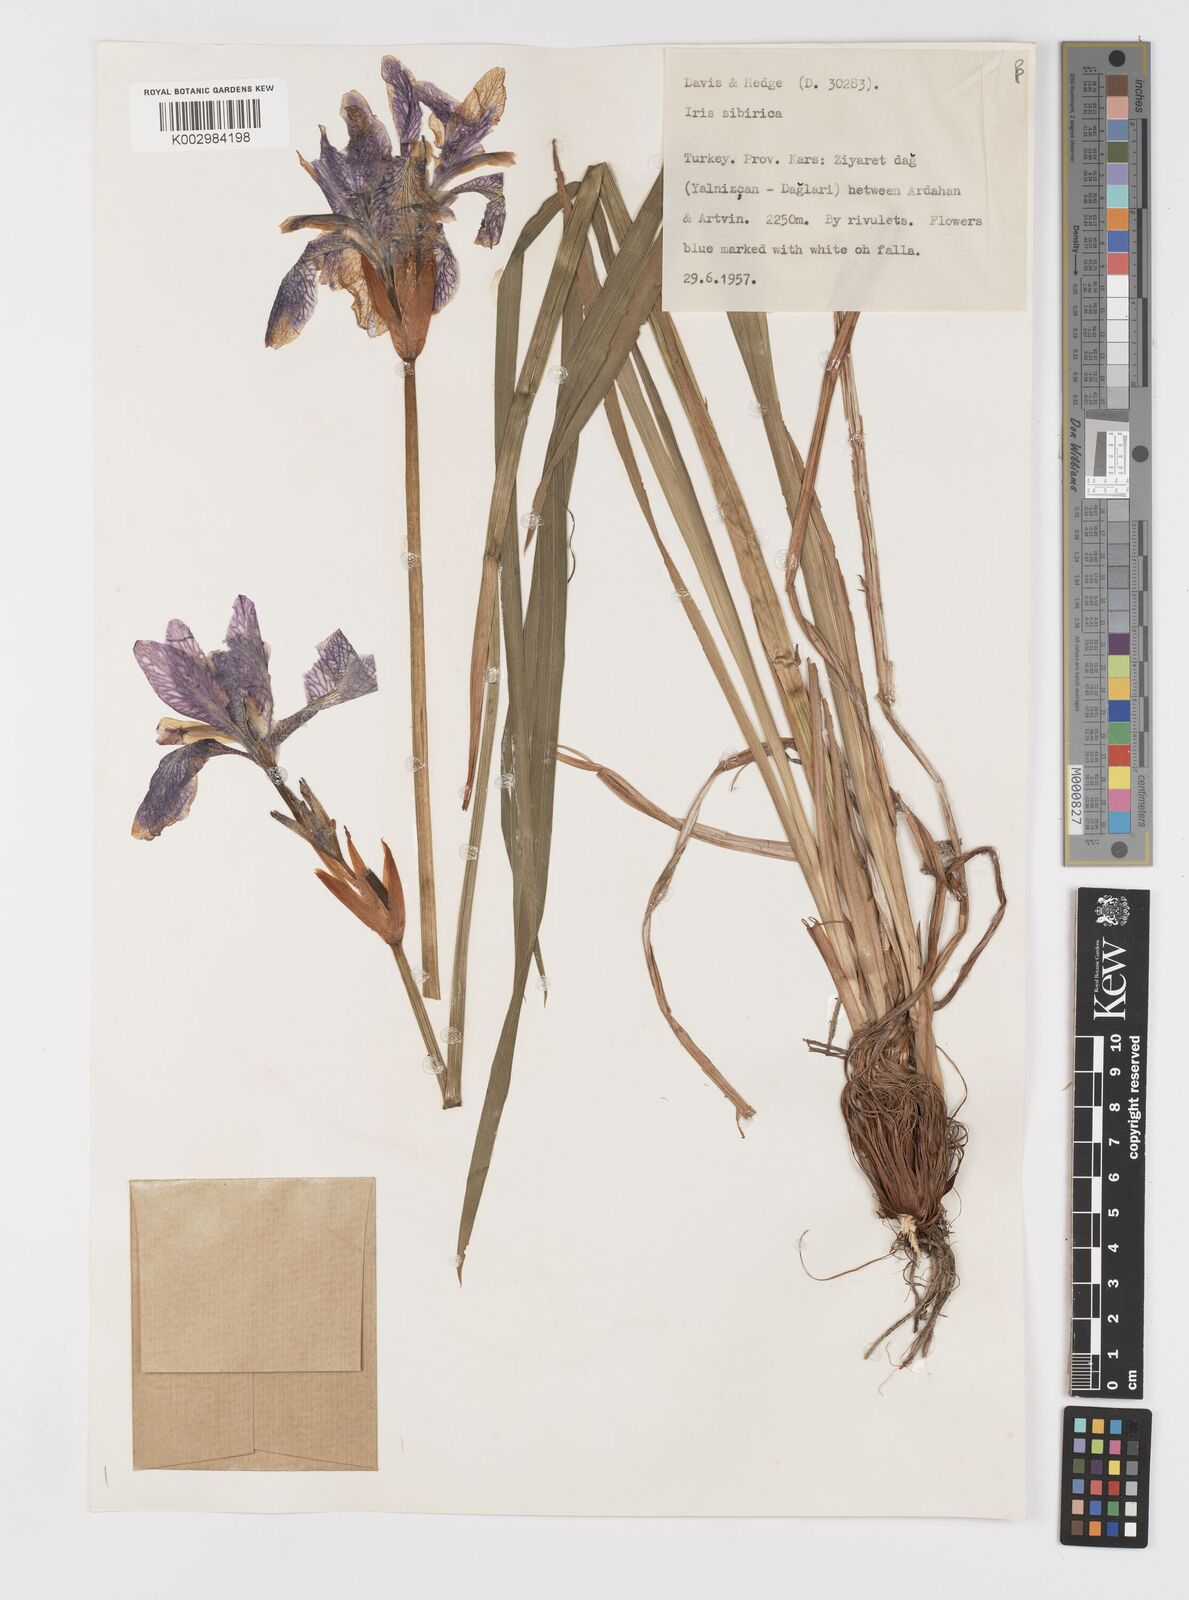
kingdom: Plantae
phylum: Tracheophyta
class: Liliopsida
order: Asparagales
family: Iridaceae
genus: Iris
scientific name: Iris sibirica
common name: Siberian iris
